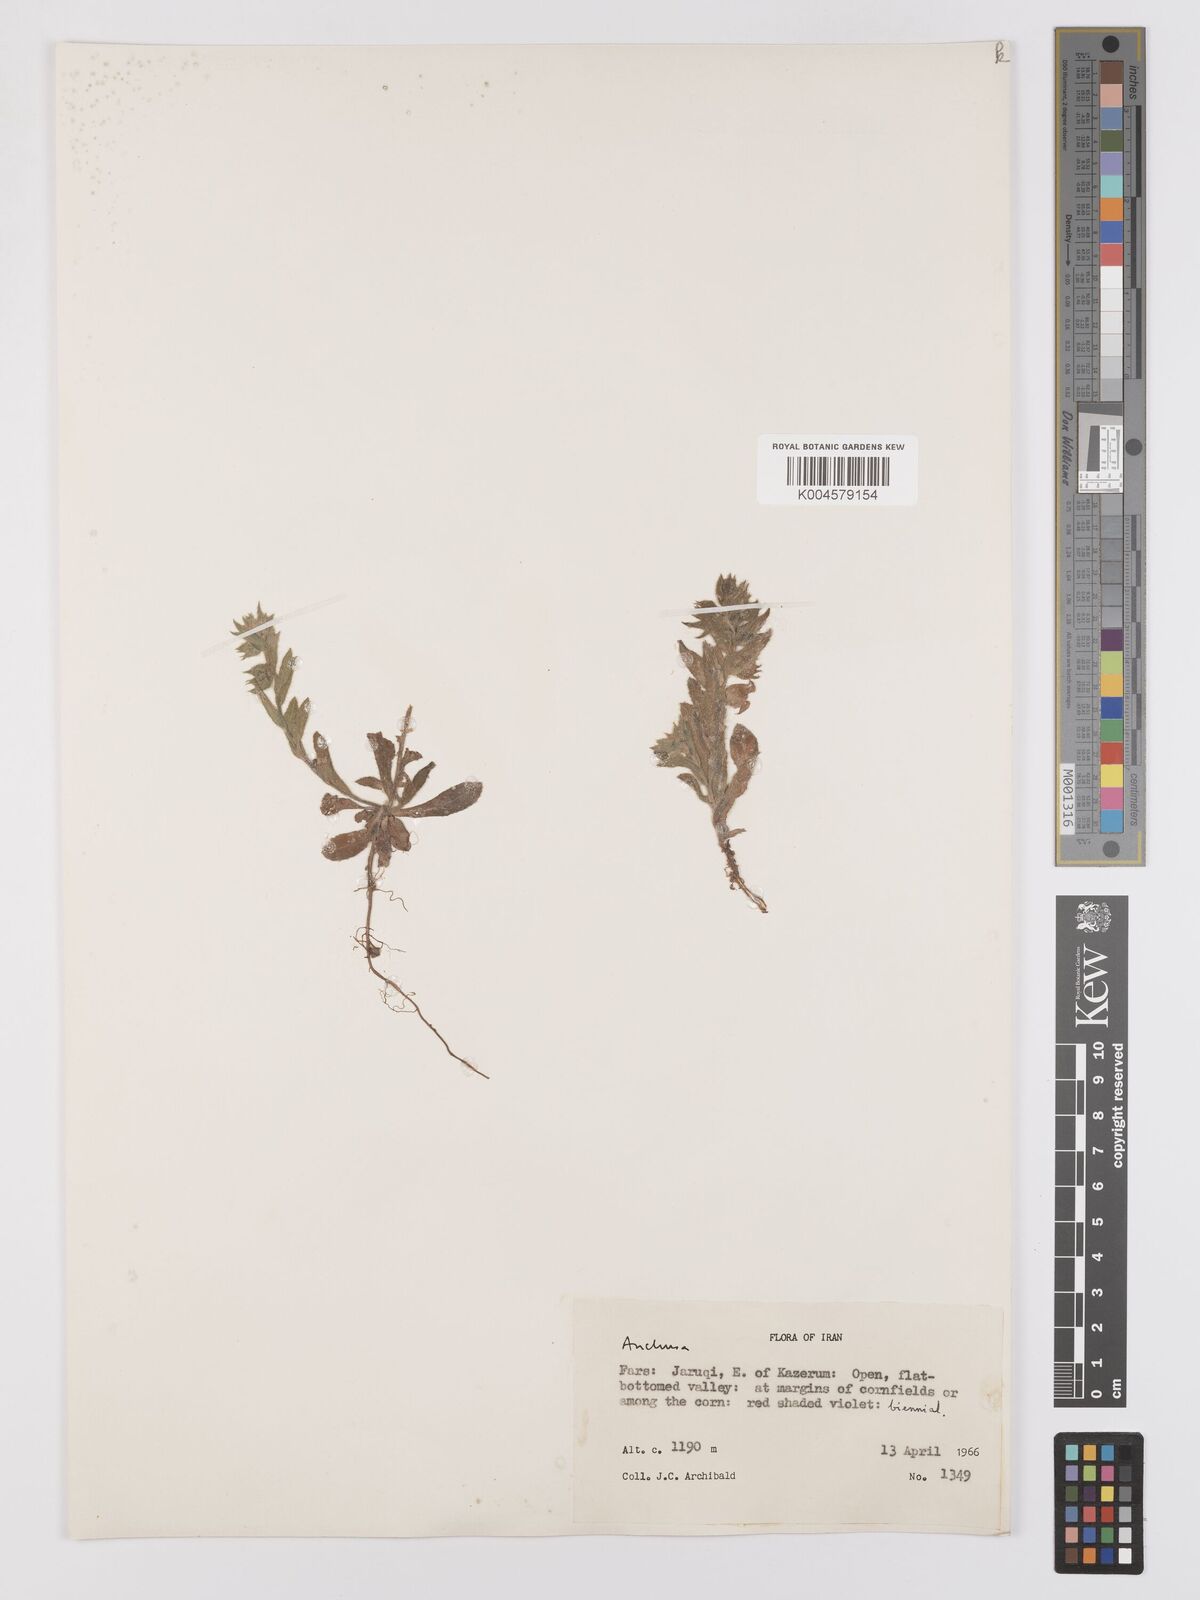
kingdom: Plantae
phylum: Tracheophyta
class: Magnoliopsida
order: Boraginales
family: Boraginaceae
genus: Nonea
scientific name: Nonea
